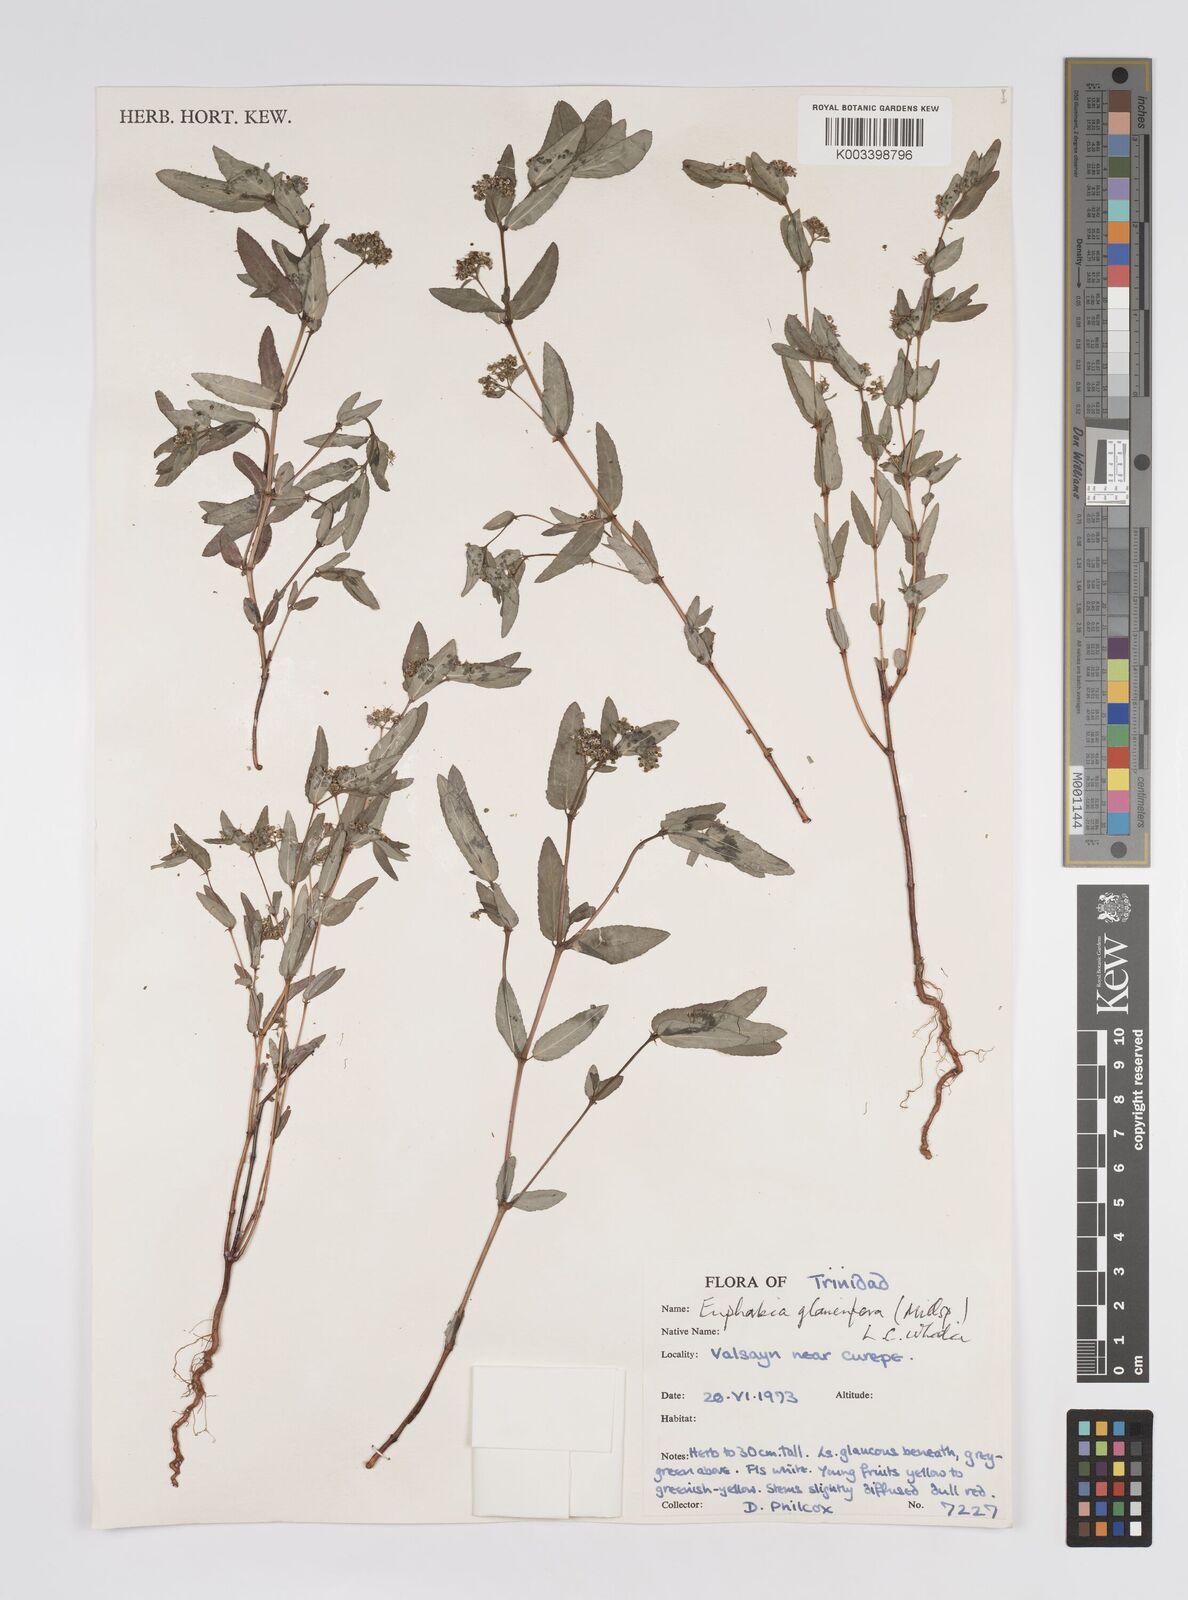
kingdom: Plantae
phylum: Tracheophyta
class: Magnoliopsida
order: Malpighiales
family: Euphorbiaceae
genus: Euphorbia
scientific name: Euphorbia hypericifolia
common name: Graceful sandmat
